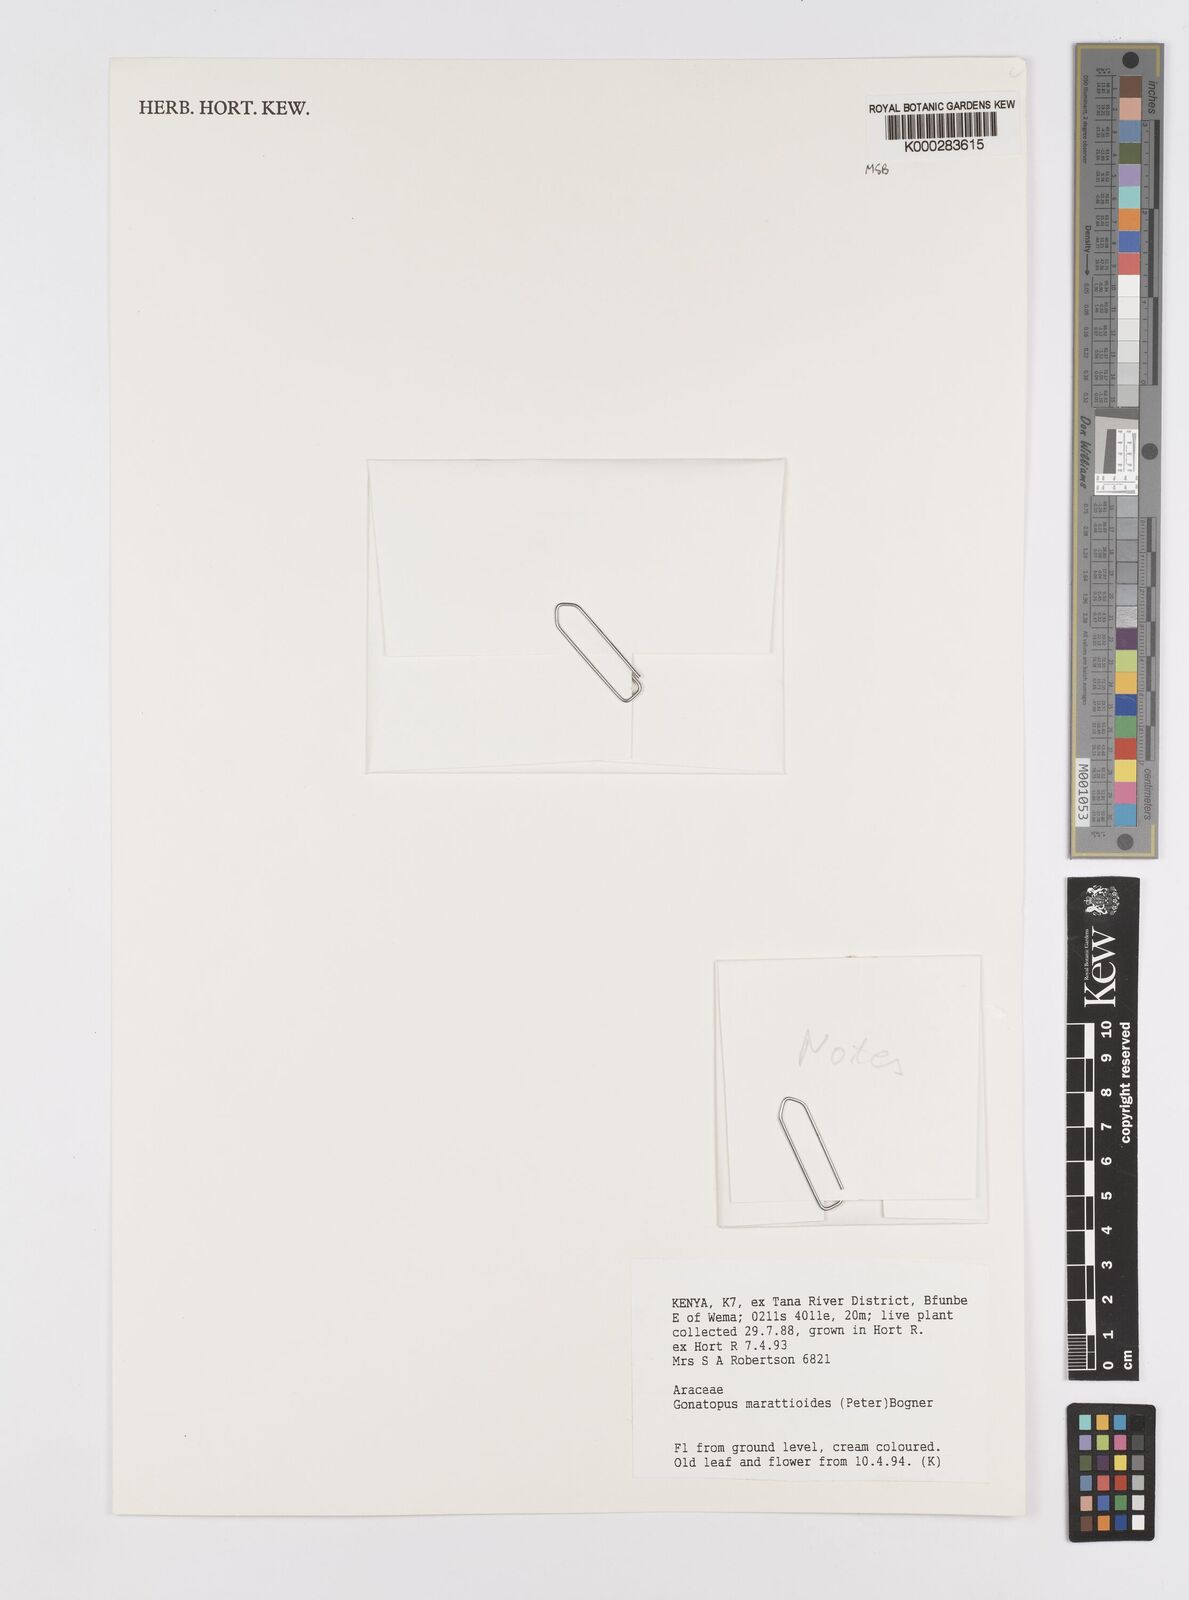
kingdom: Plantae
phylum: Tracheophyta
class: Liliopsida
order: Alismatales
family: Araceae
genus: Gonatopus
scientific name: Gonatopus marattioides
